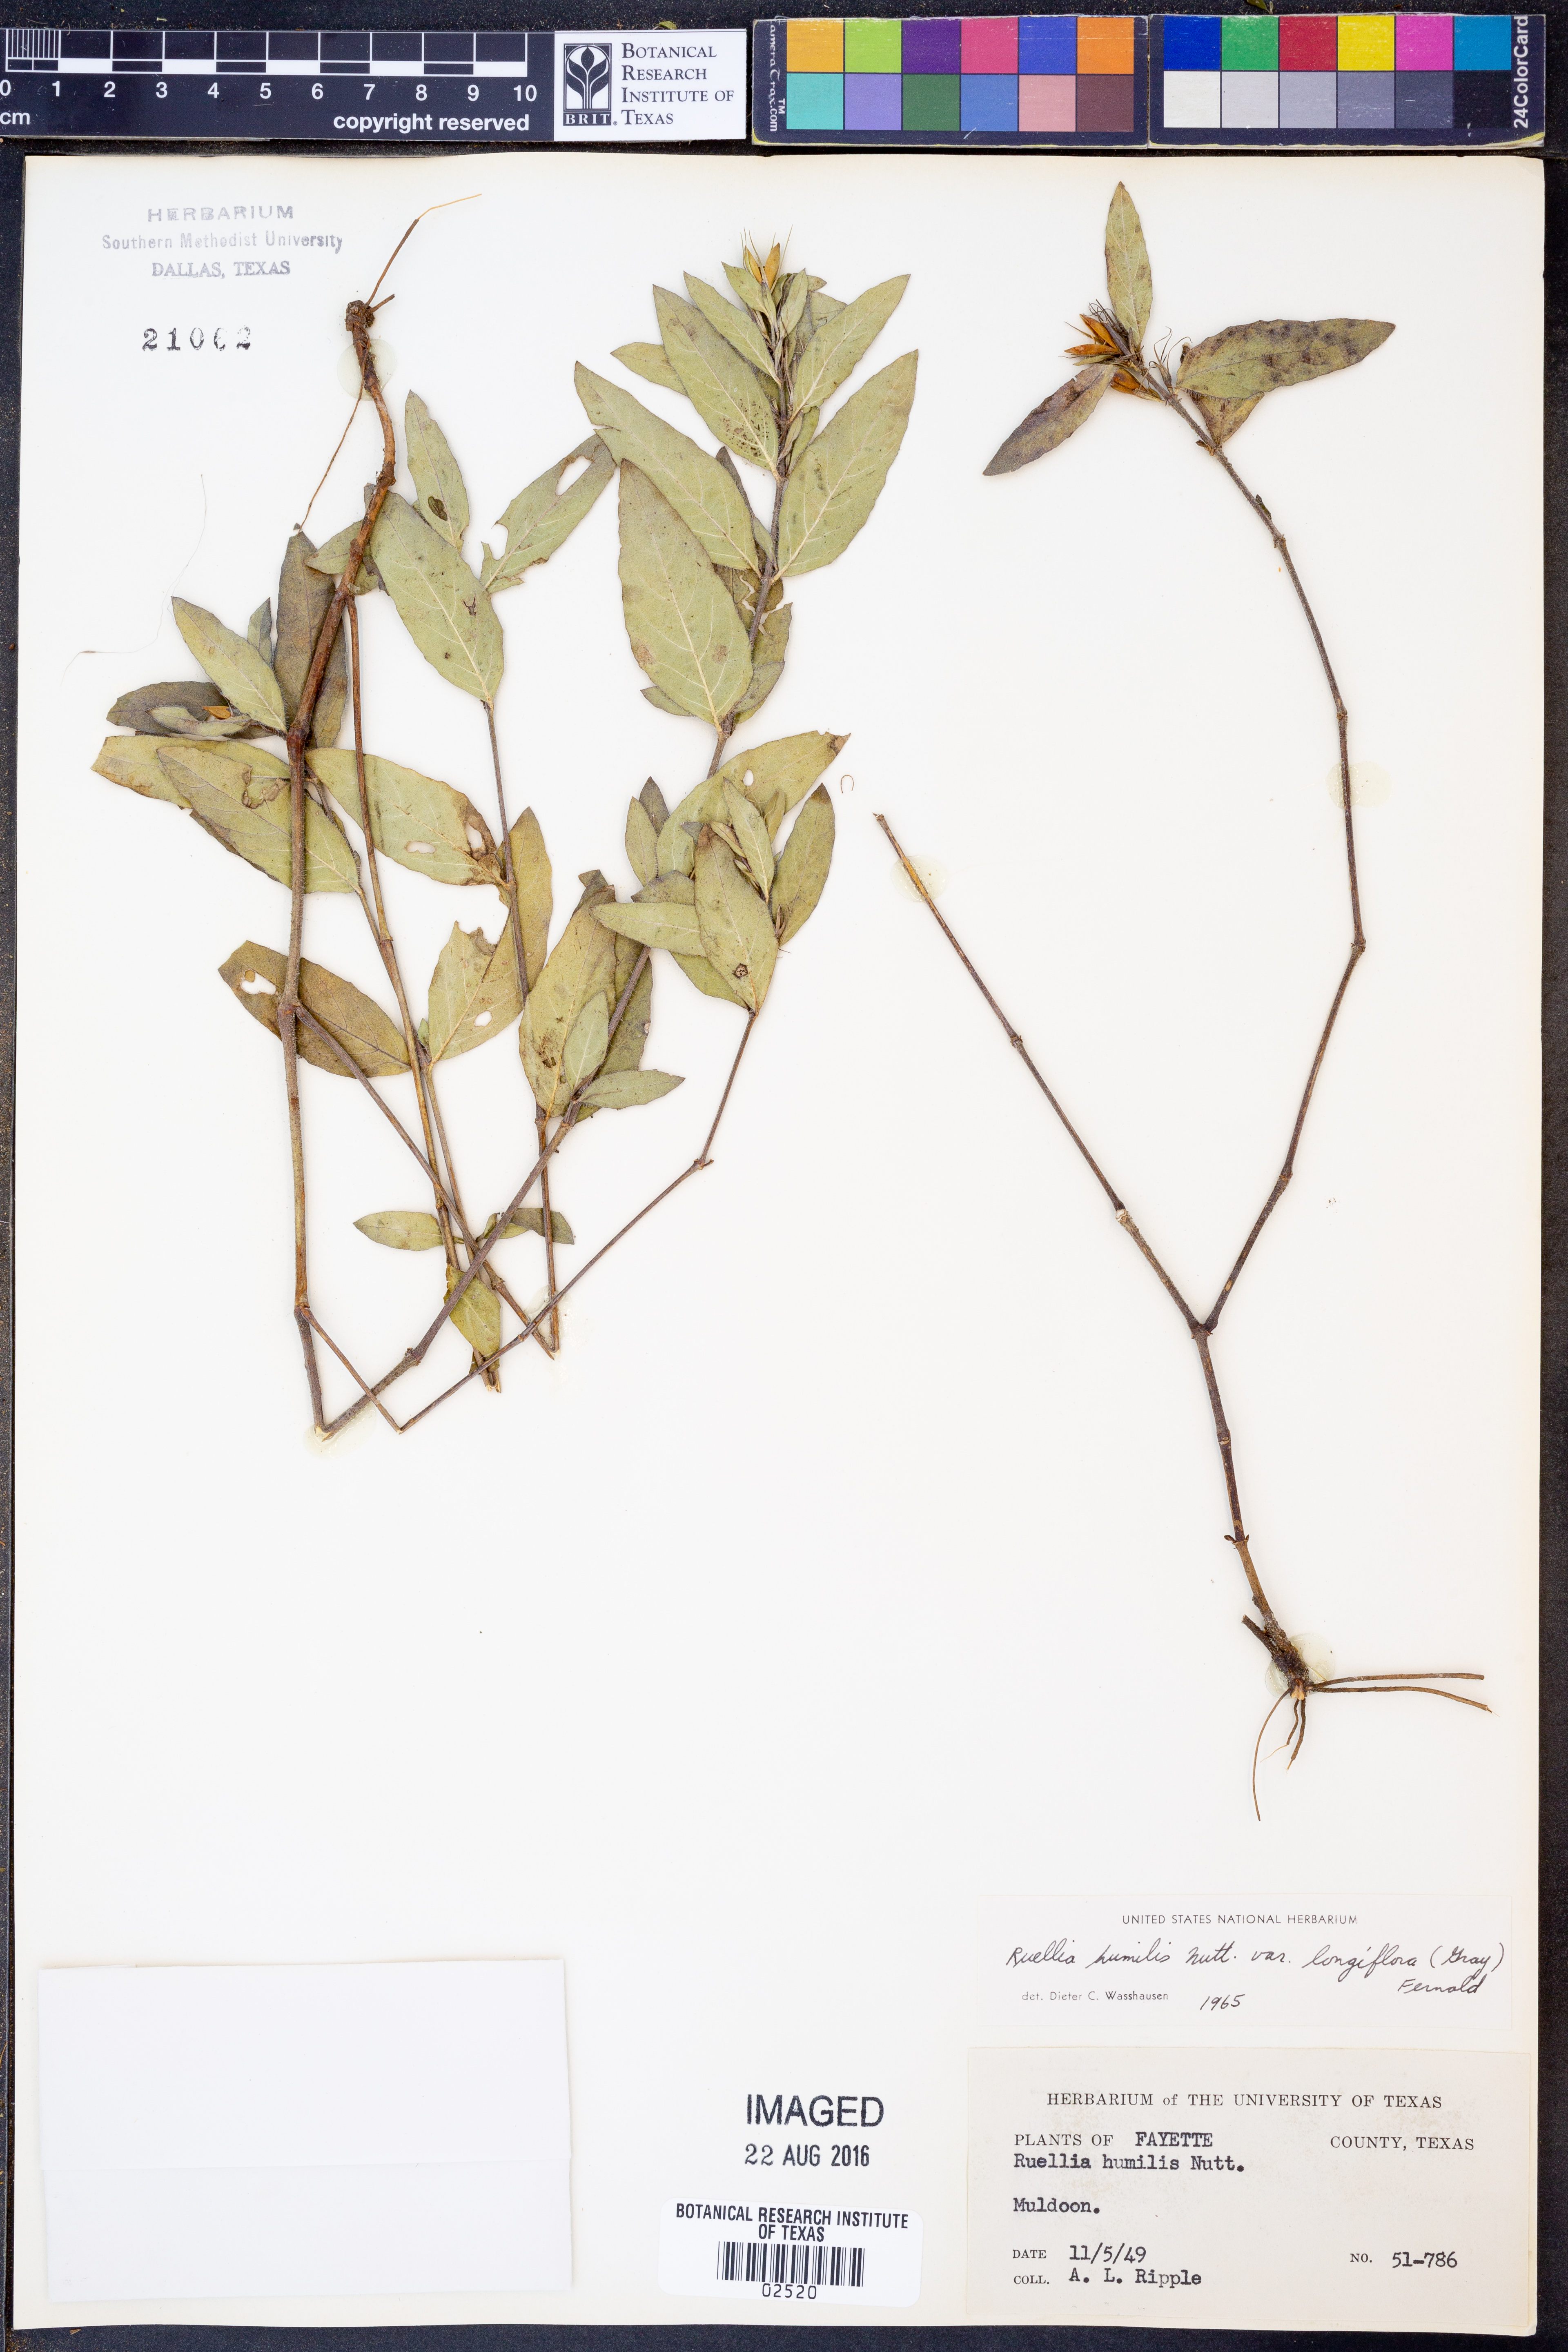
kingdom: Plantae
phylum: Tracheophyta
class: Magnoliopsida
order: Lamiales
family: Acanthaceae
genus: Ruellia
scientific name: Ruellia humilis
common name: Fringe-leaf ruellia
